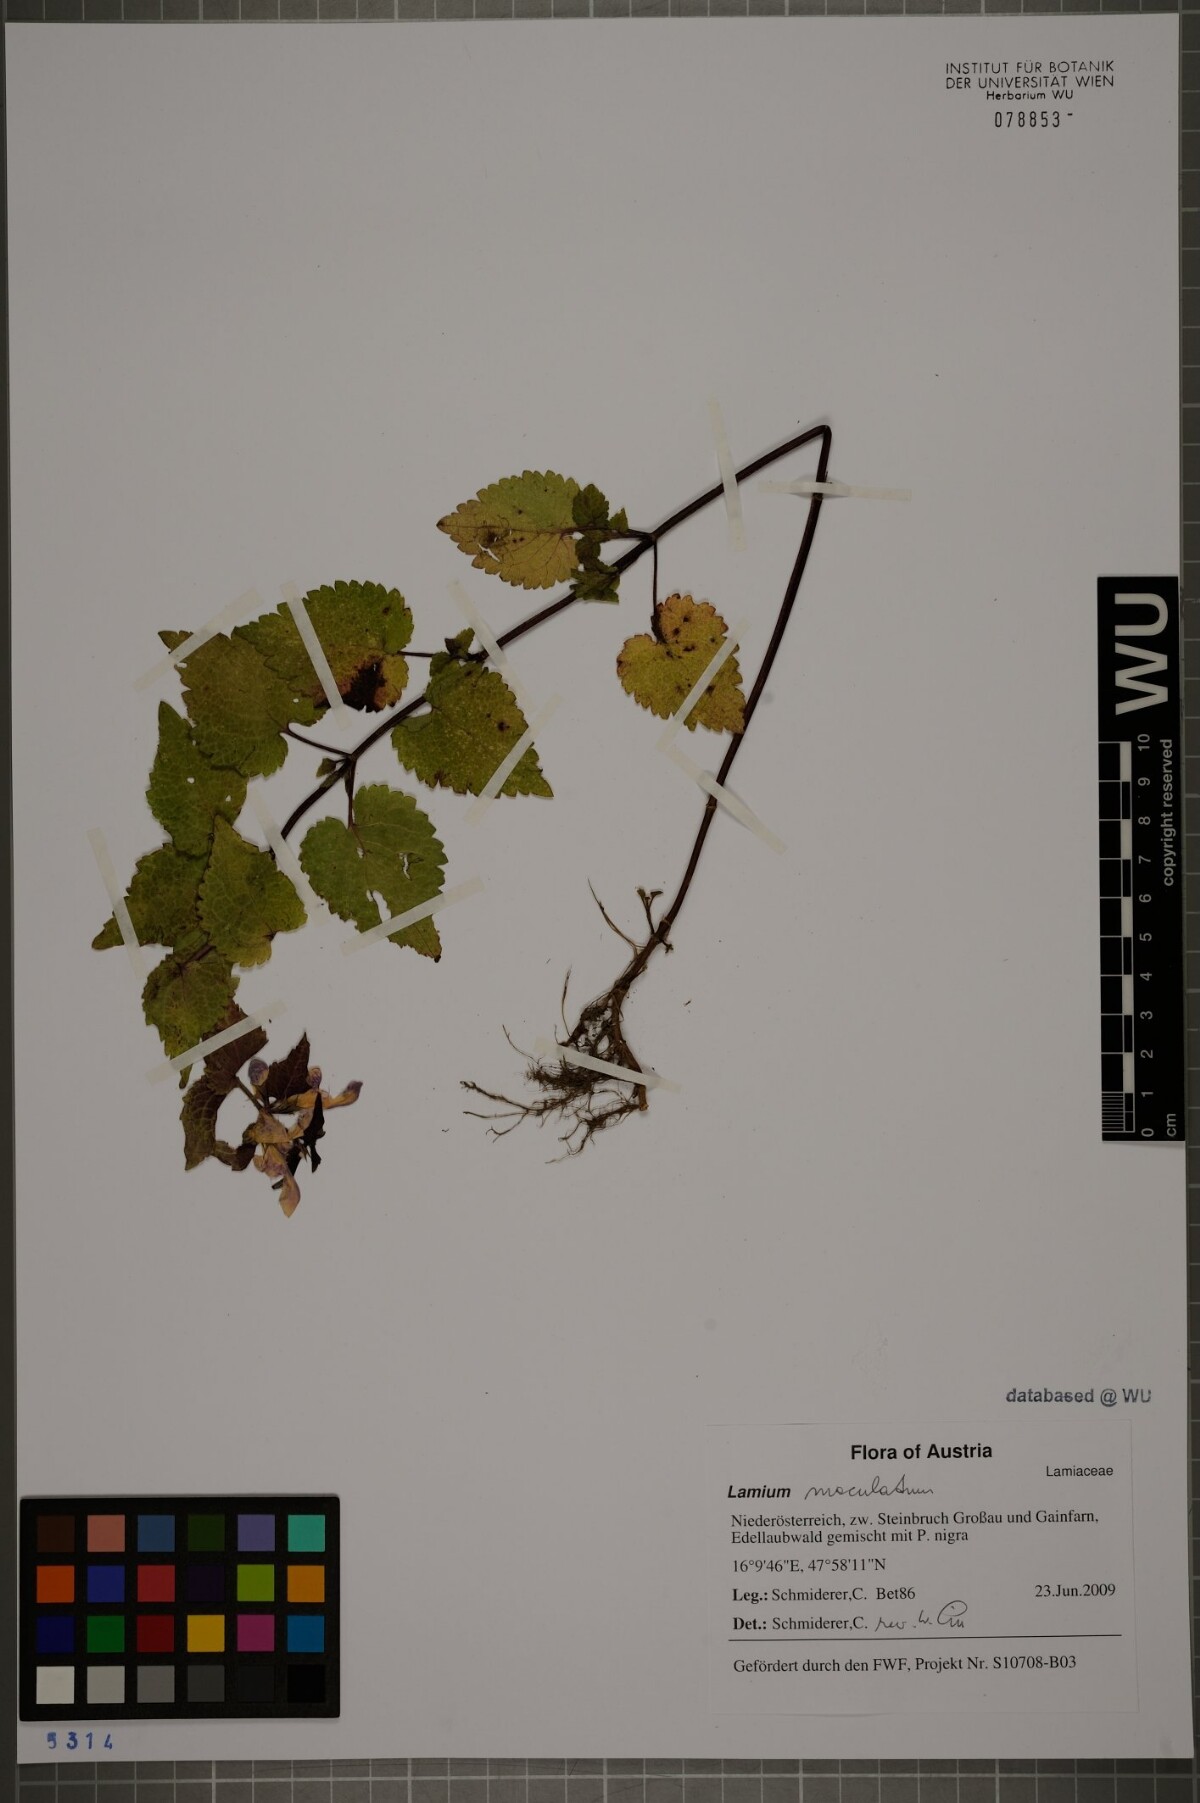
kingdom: Plantae
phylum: Tracheophyta
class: Magnoliopsida
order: Lamiales
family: Lamiaceae
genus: Lamium
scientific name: Lamium maculatum
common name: Spotted dead-nettle
